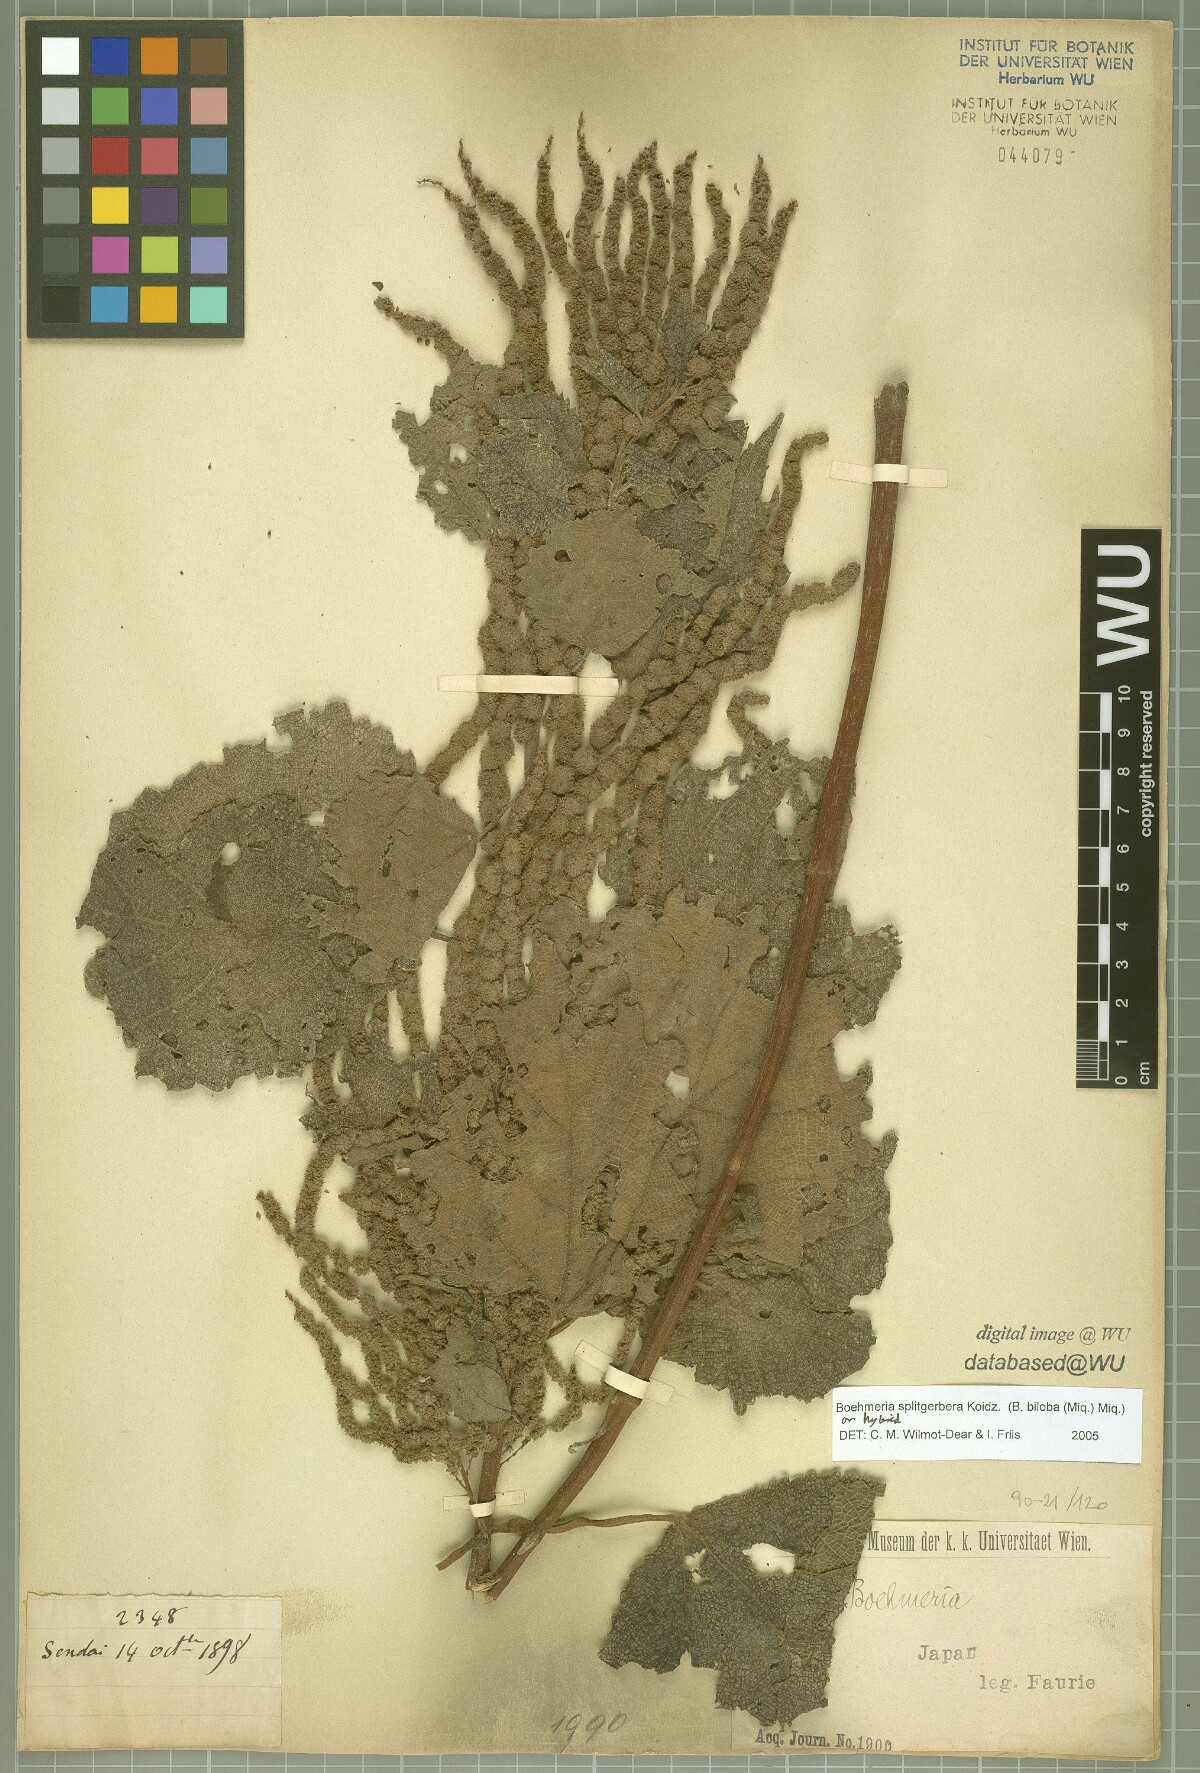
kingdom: Plantae
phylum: Tracheophyta
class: Magnoliopsida
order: Rosales
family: Urticaceae
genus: Boehmeria
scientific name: Boehmeria splitgerbera
